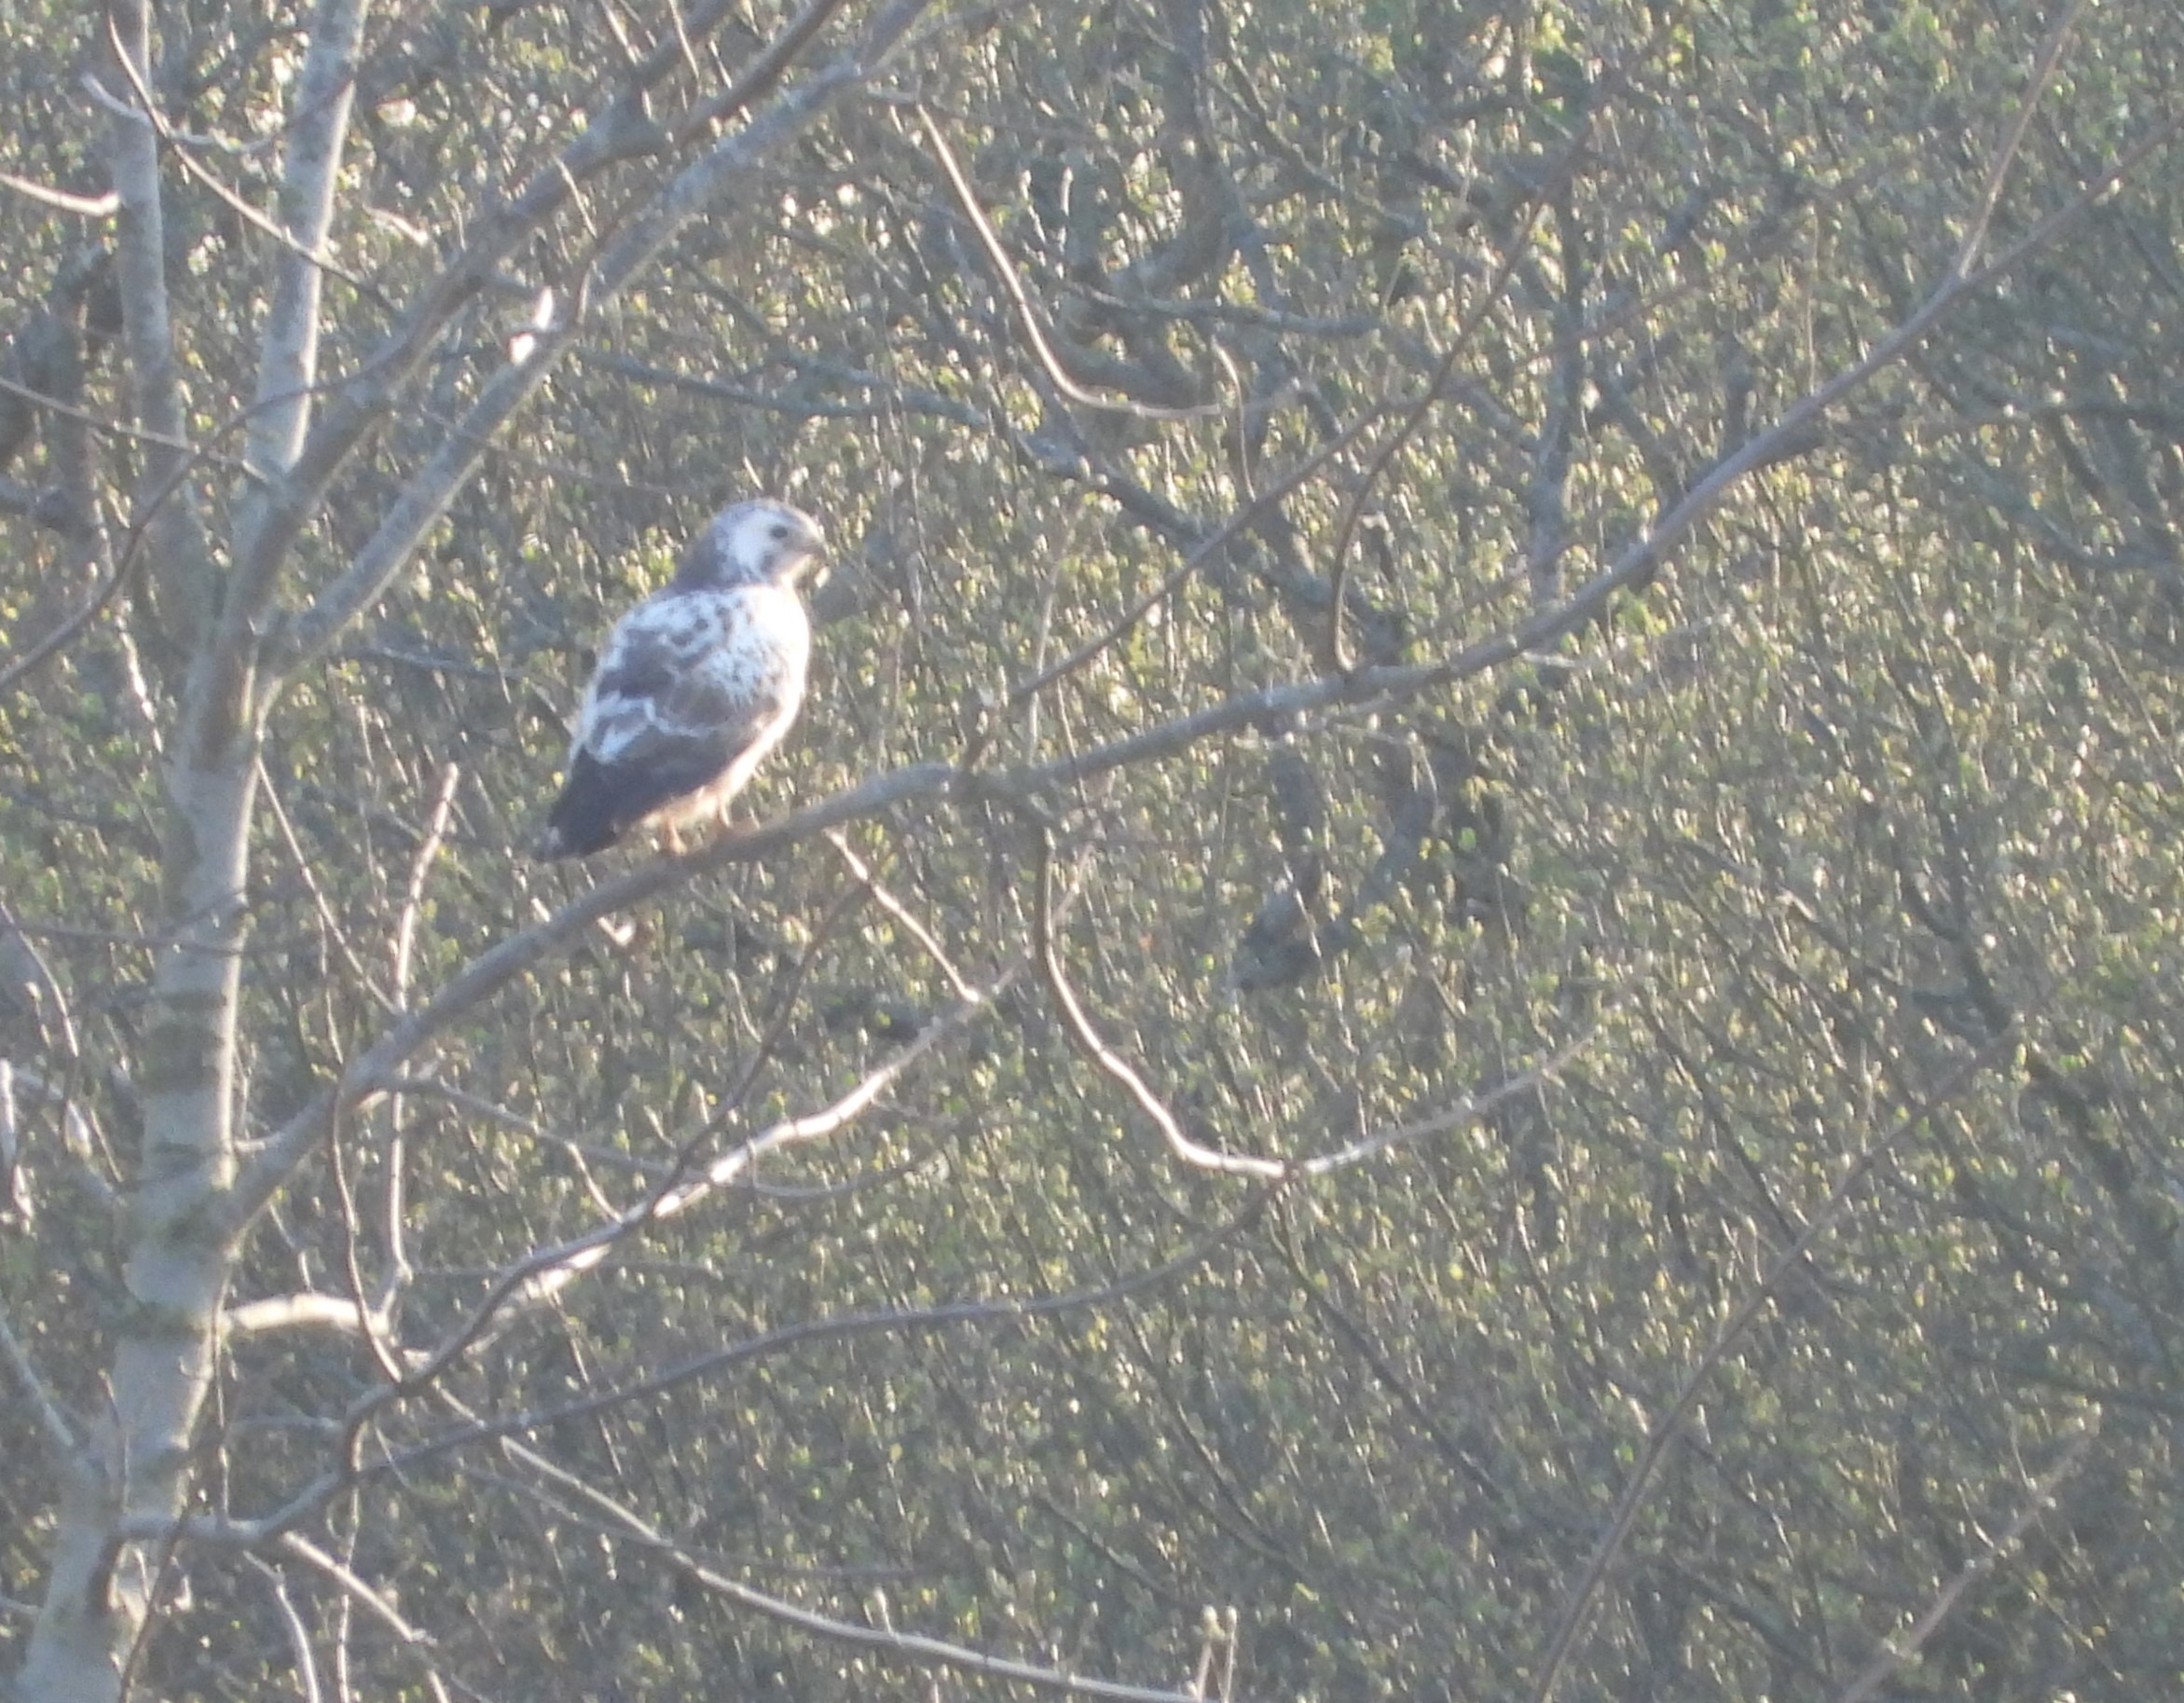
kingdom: Animalia
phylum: Chordata
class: Aves
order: Accipitriformes
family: Accipitridae
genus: Buteo
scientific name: Buteo buteo
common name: Musvåge
